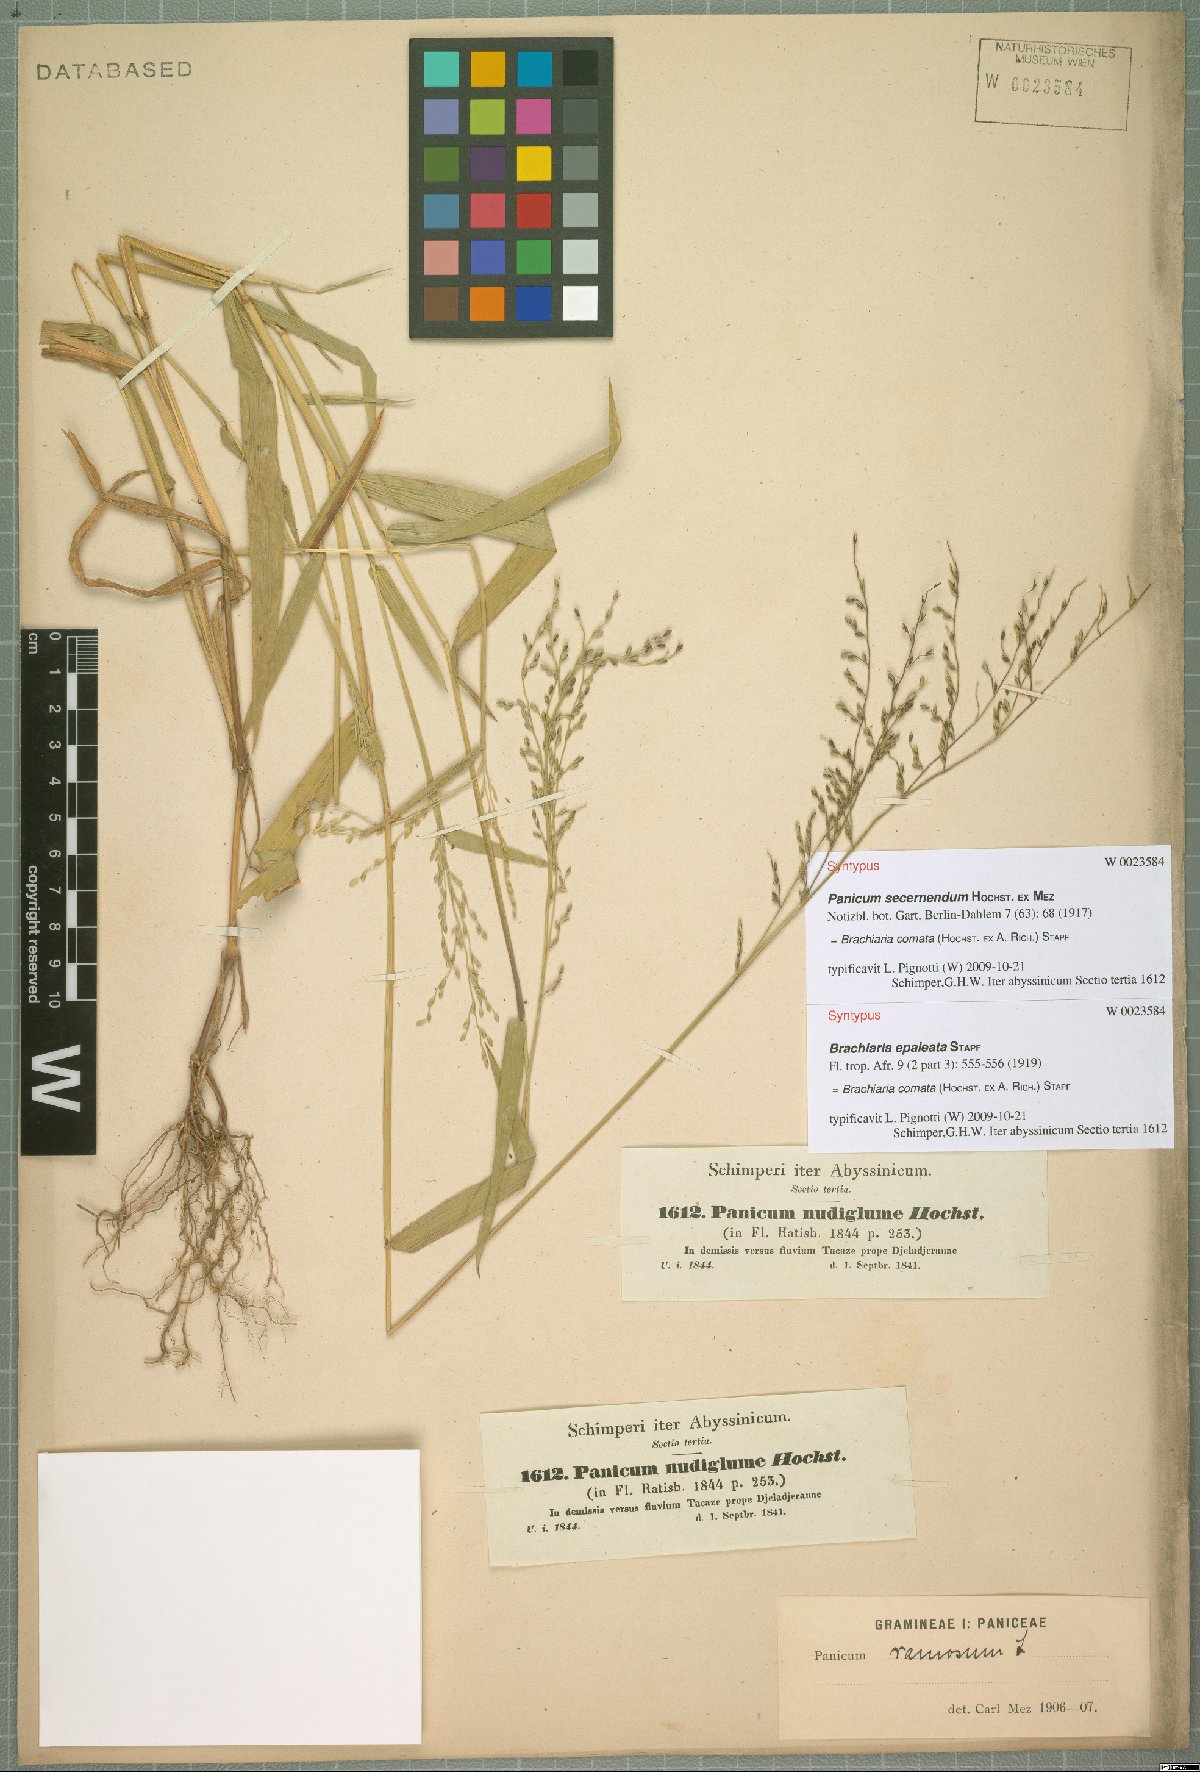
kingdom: Plantae
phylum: Tracheophyta
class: Liliopsida
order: Poales
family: Poaceae
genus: Urochloa
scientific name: Urochloa comata
